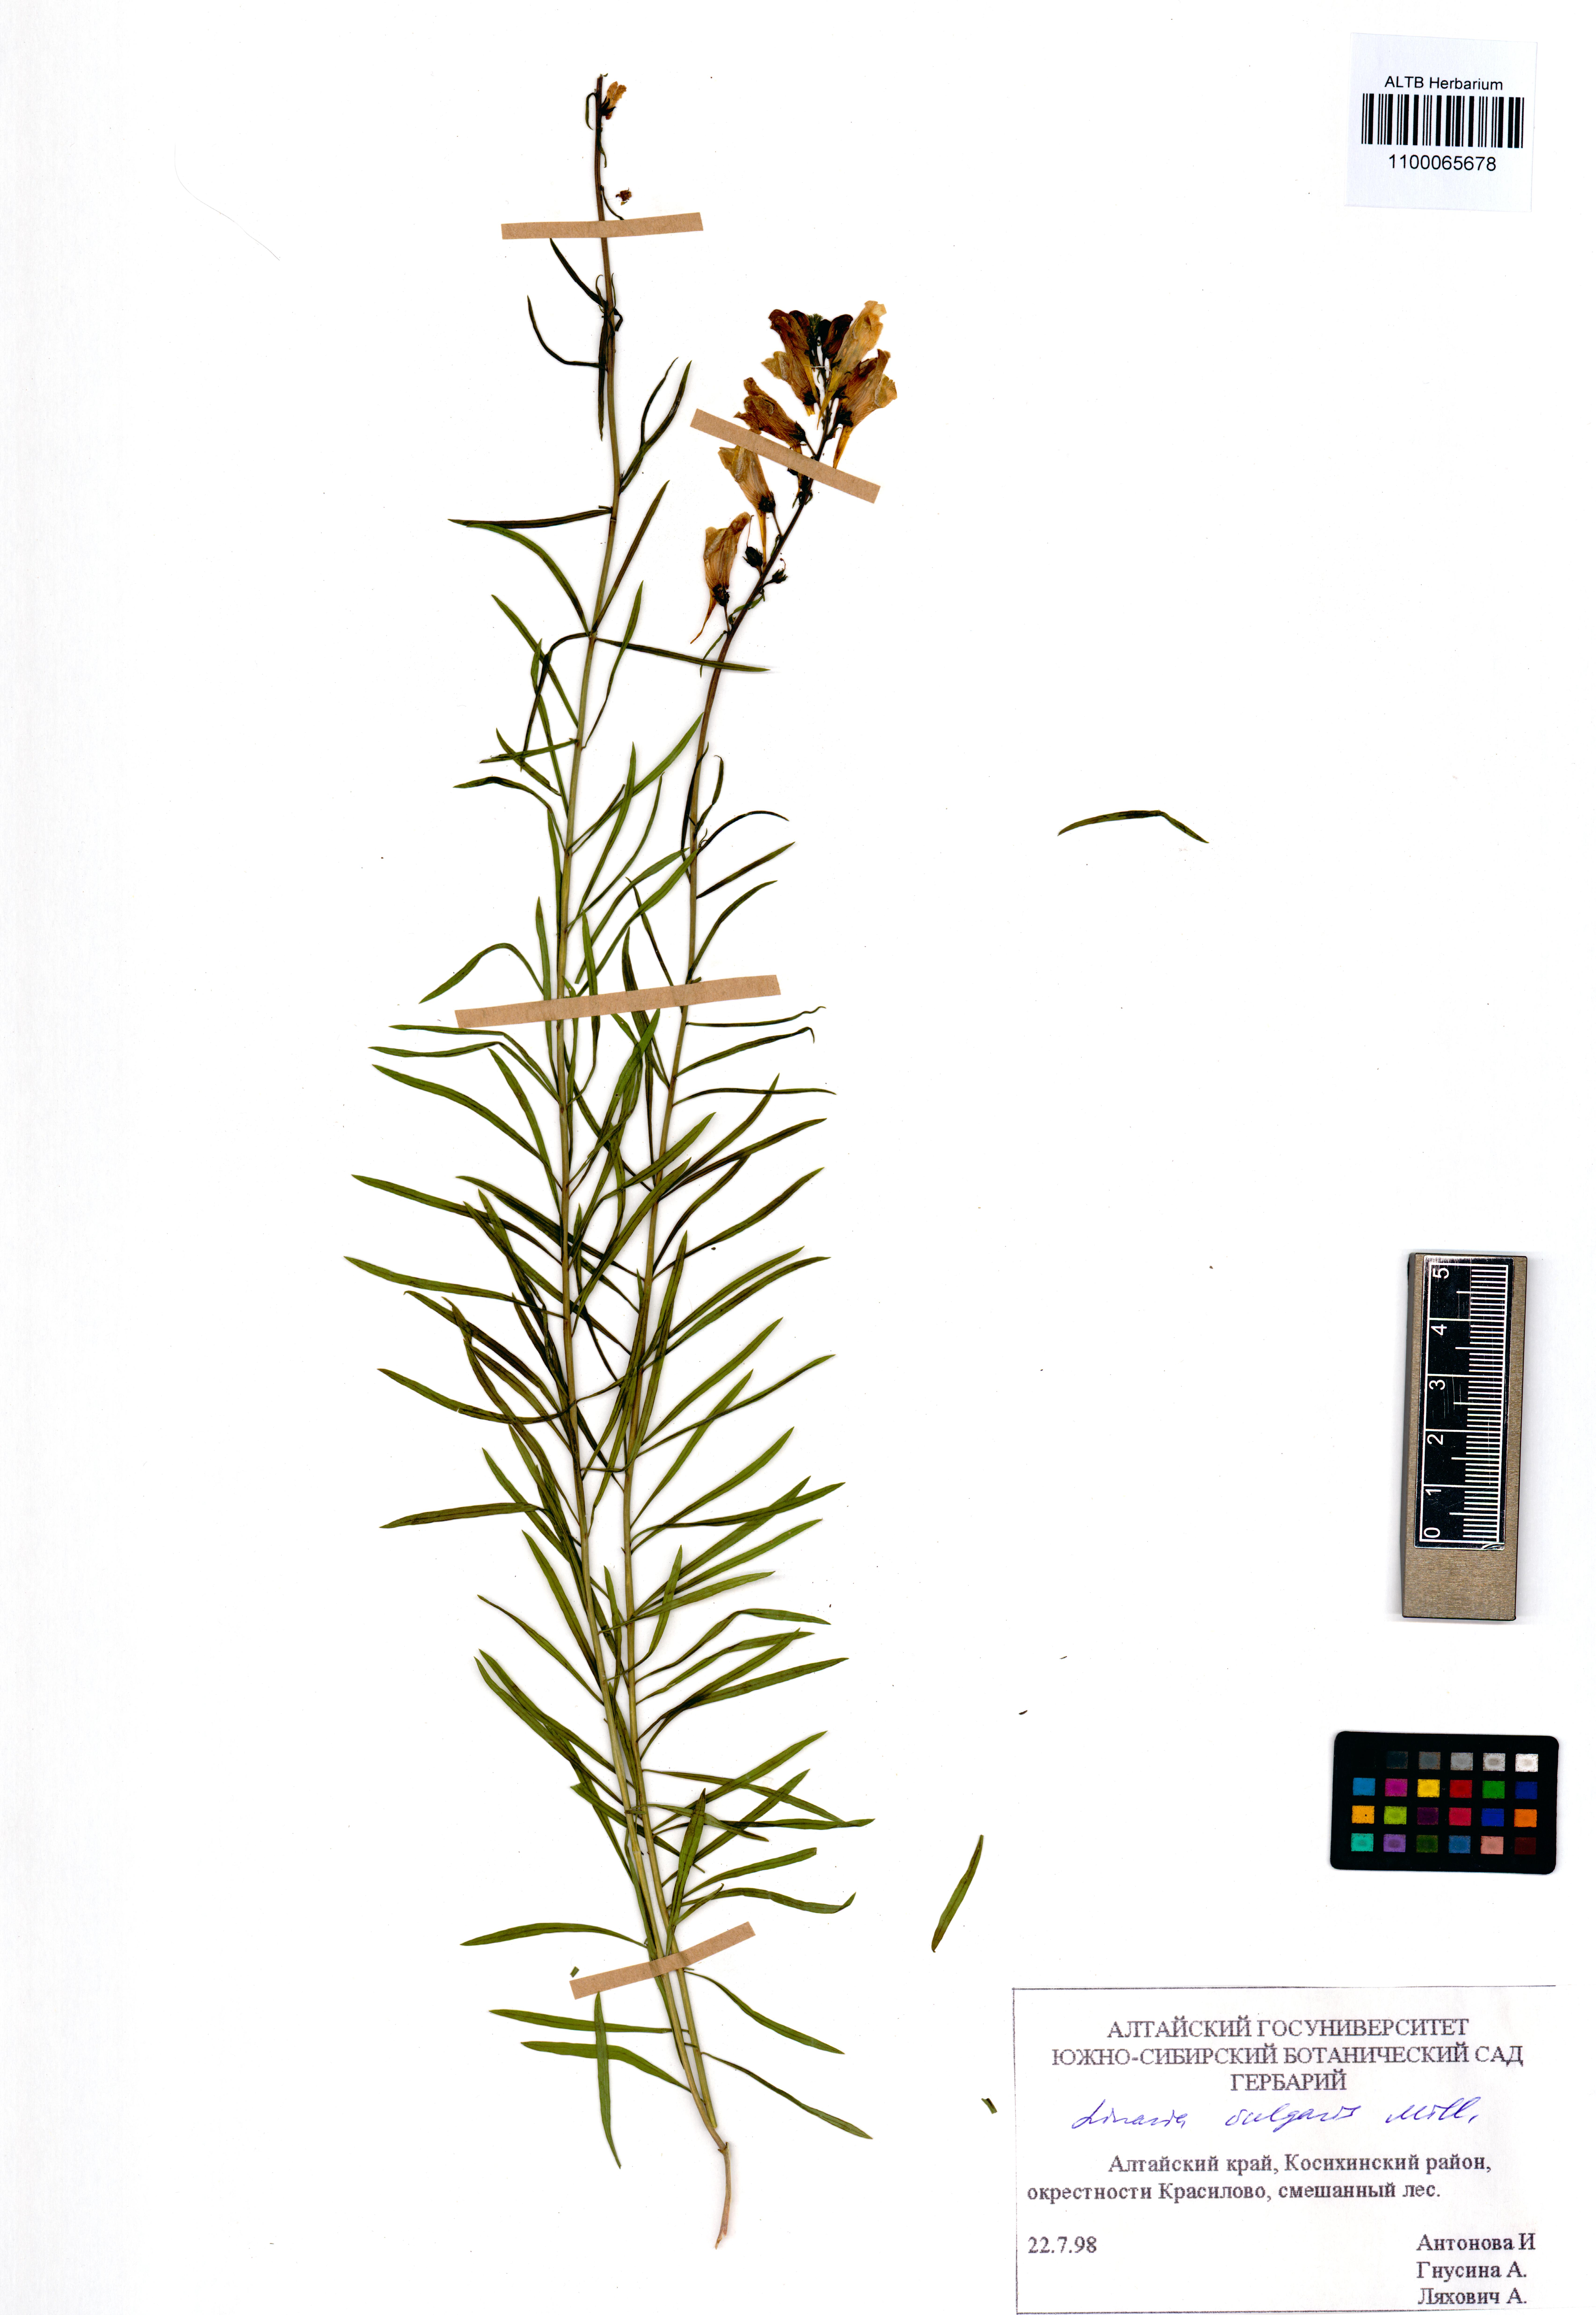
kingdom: Plantae
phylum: Tracheophyta
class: Magnoliopsida
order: Lamiales
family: Plantaginaceae
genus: Linaria
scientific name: Linaria vulgaris
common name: Butter and eggs
